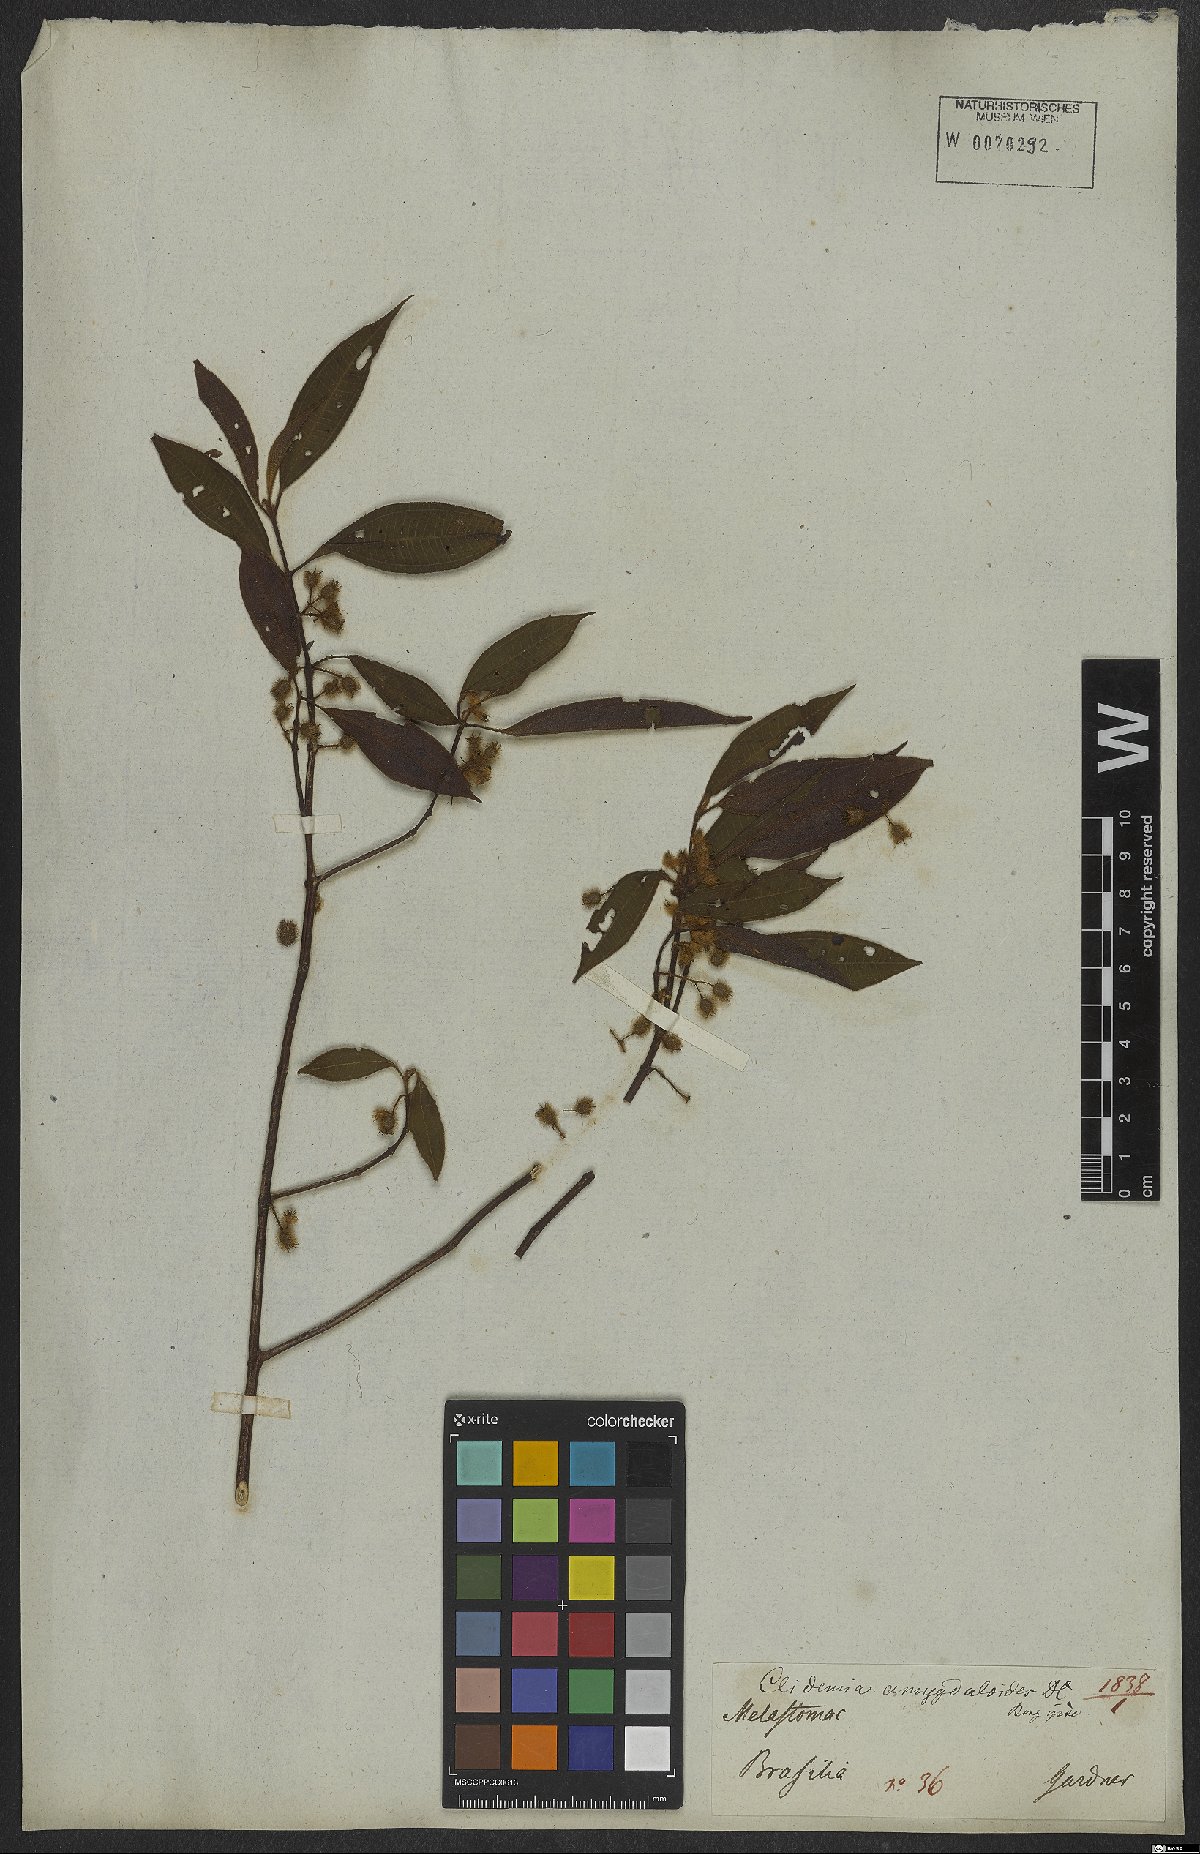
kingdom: Plantae
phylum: Tracheophyta
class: Magnoliopsida
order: Myrtales
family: Melastomataceae
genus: Miconia
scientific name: Miconia amygdaloides
